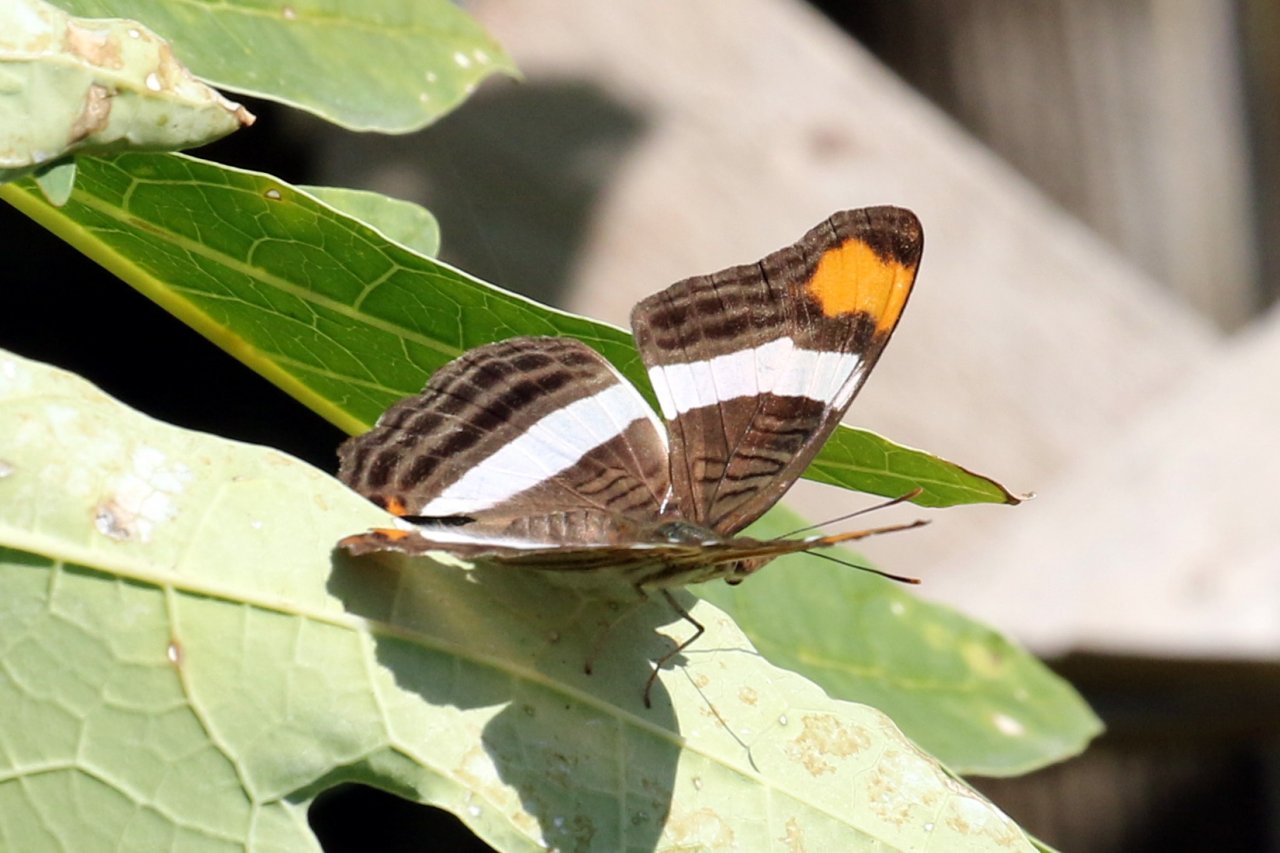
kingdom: Animalia
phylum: Arthropoda
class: Insecta
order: Lepidoptera
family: Nymphalidae
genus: Limenitis
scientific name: Limenitis fessonia
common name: Band-celled Sister
